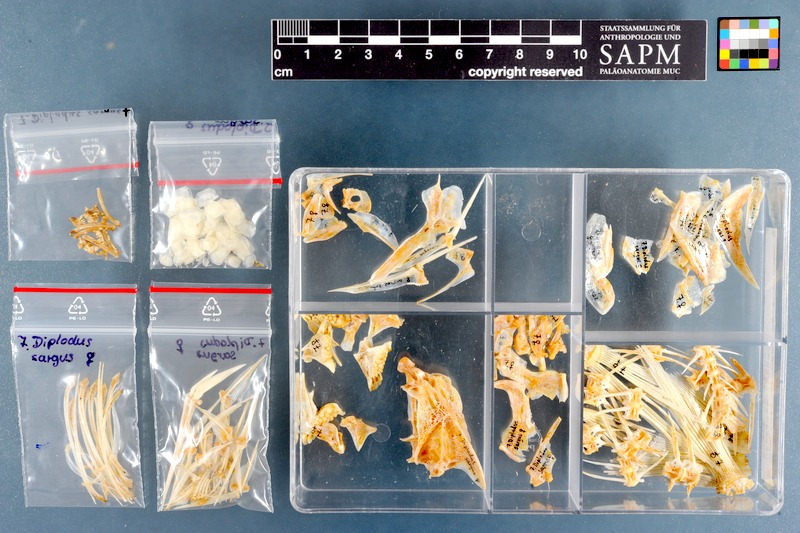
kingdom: Animalia
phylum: Chordata
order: Perciformes
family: Sparidae
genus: Diplodus
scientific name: Diplodus sargus
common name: White seabream
